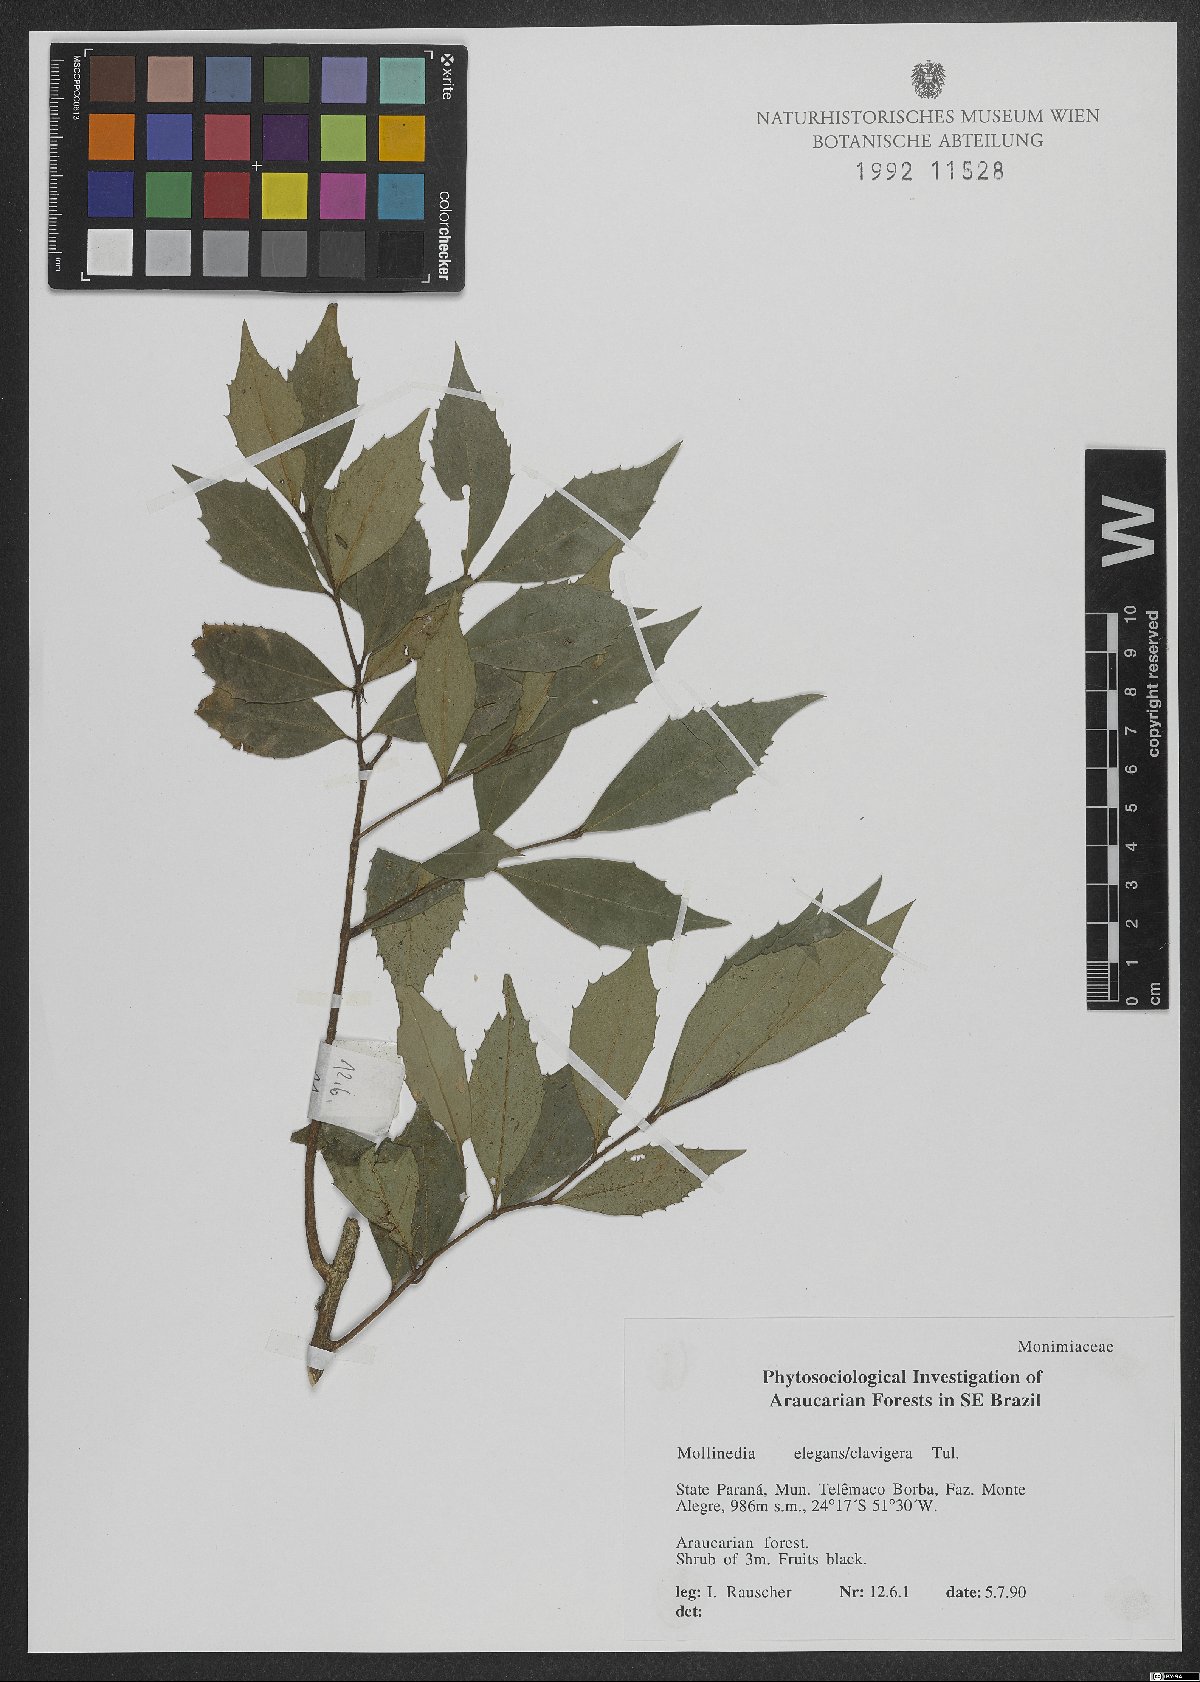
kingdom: Plantae
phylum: Tracheophyta
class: Magnoliopsida
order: Laurales
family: Monimiaceae
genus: Mollinedia
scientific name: Mollinedia clavigera
